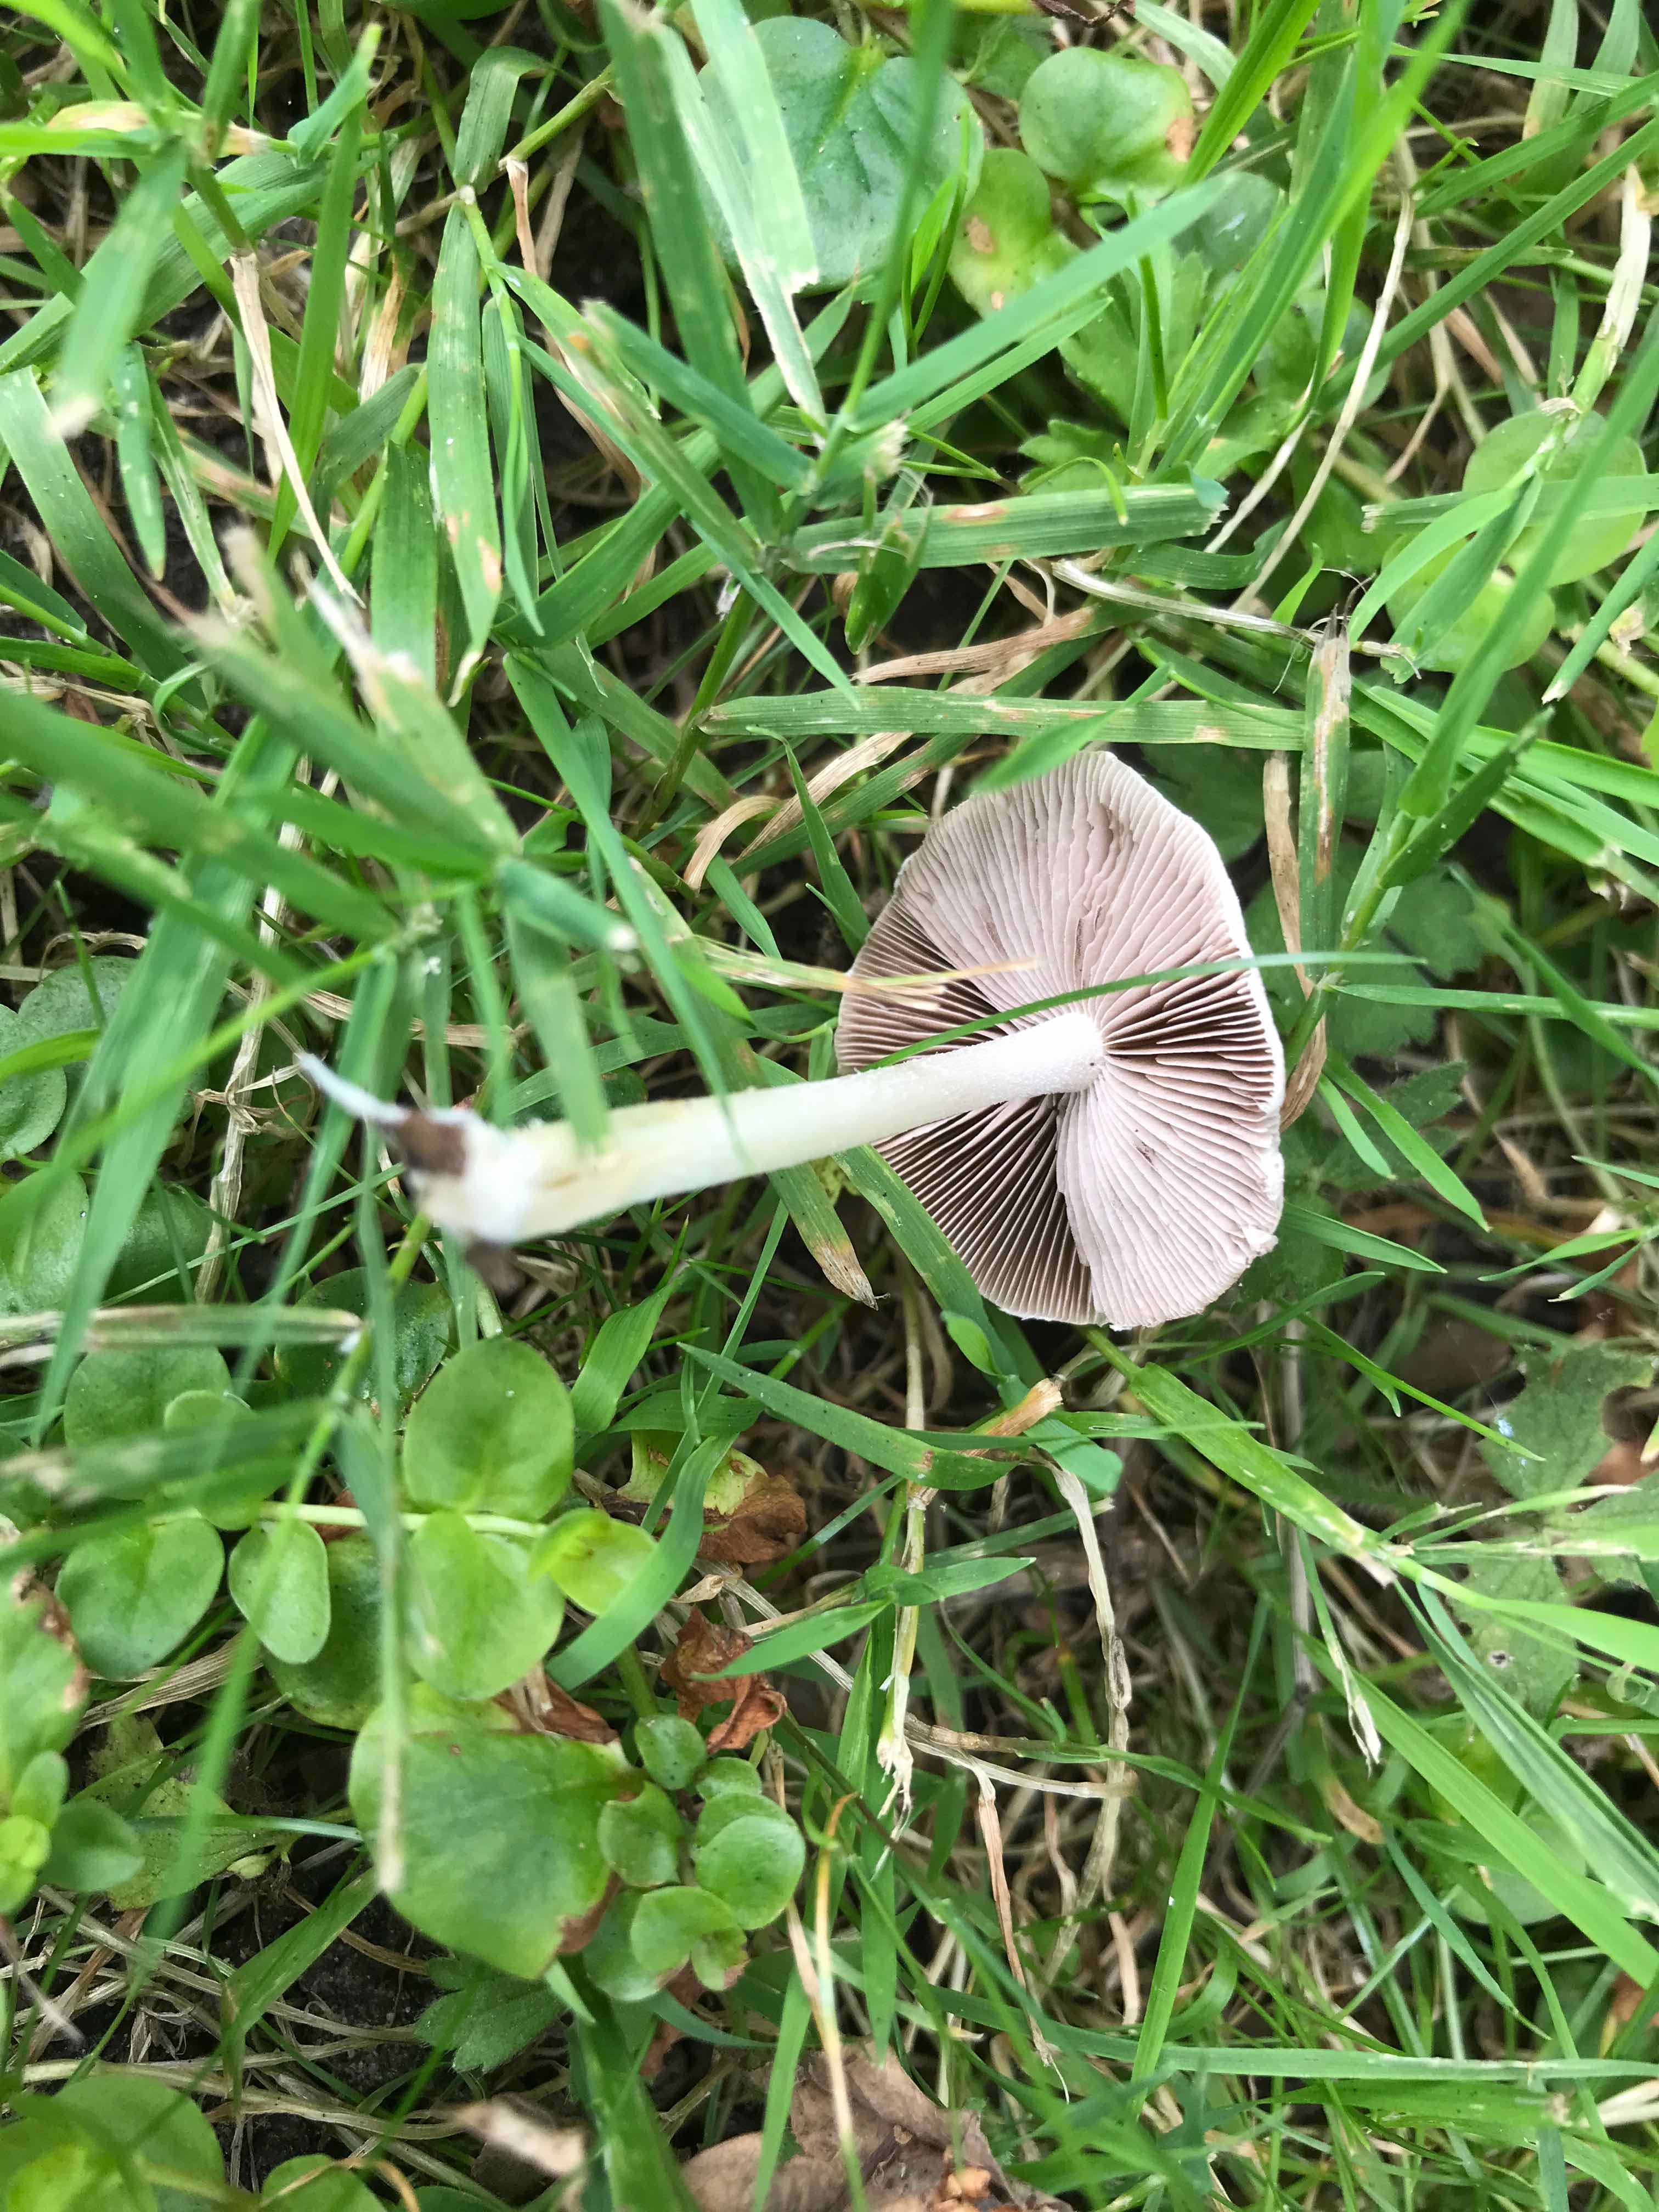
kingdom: Fungi
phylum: Basidiomycota
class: Agaricomycetes
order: Agaricales
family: Psathyrellaceae
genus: Candolleomyces
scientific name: Candolleomyces candolleanus
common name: Candolles mørkhat
